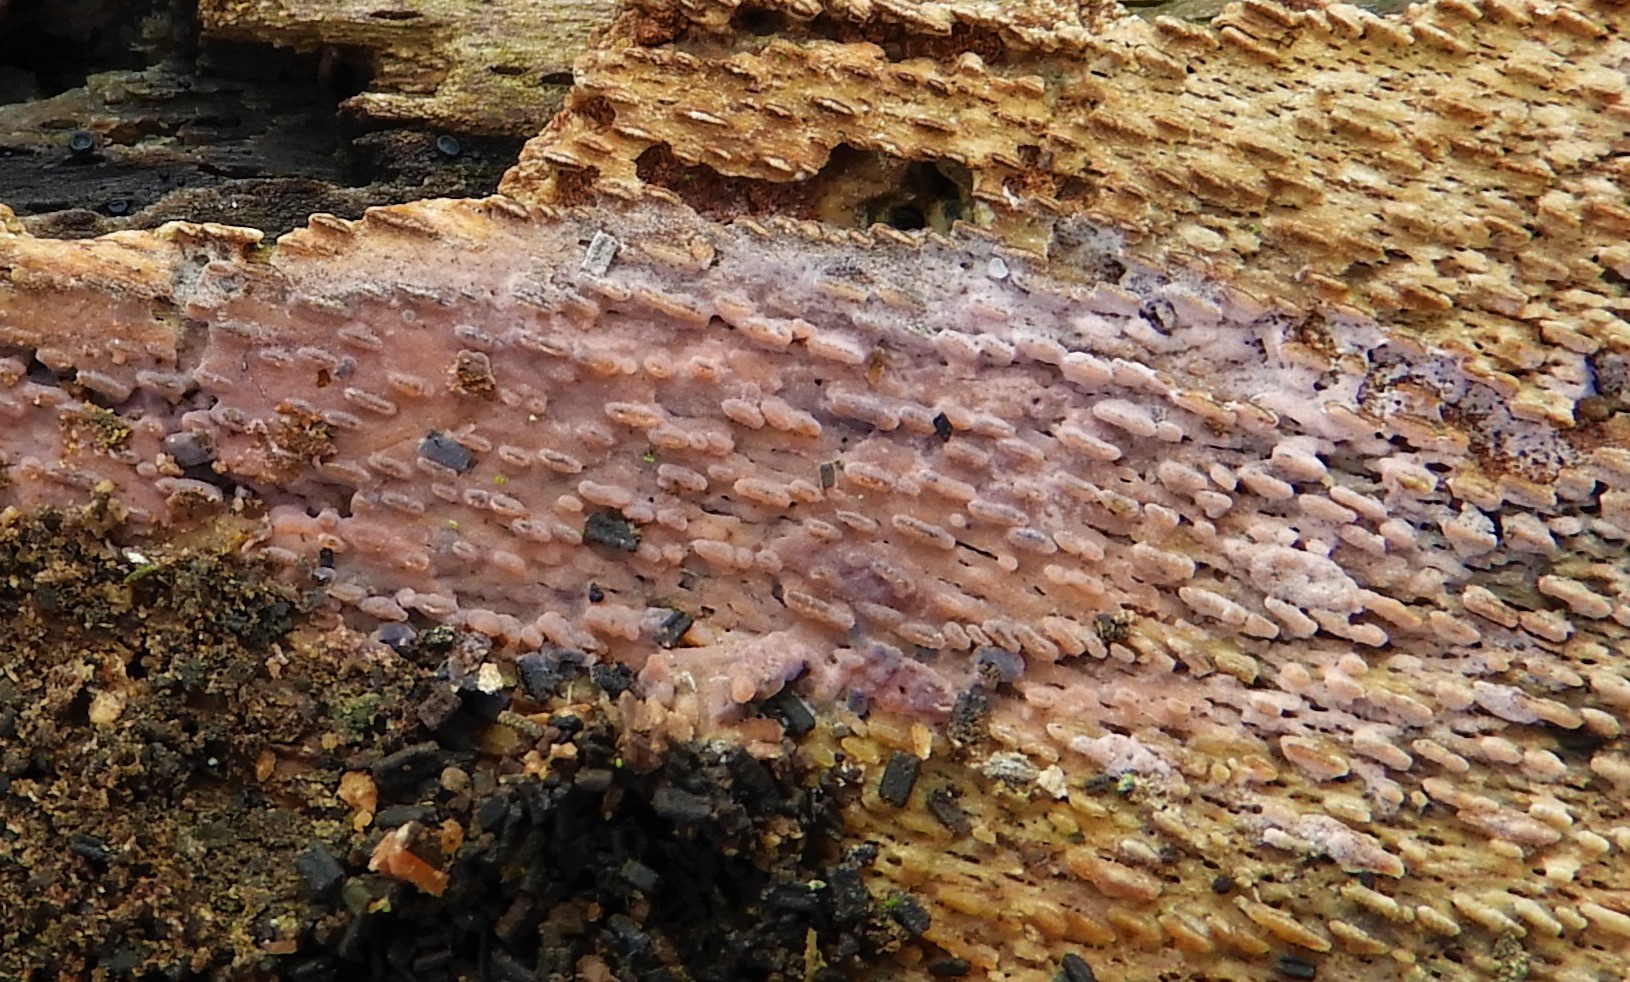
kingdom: Fungi
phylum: Basidiomycota
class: Agaricomycetes
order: Cantharellales
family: Tulasnellaceae
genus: Tulasnella
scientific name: Tulasnella violea
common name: violet ballonhinde
